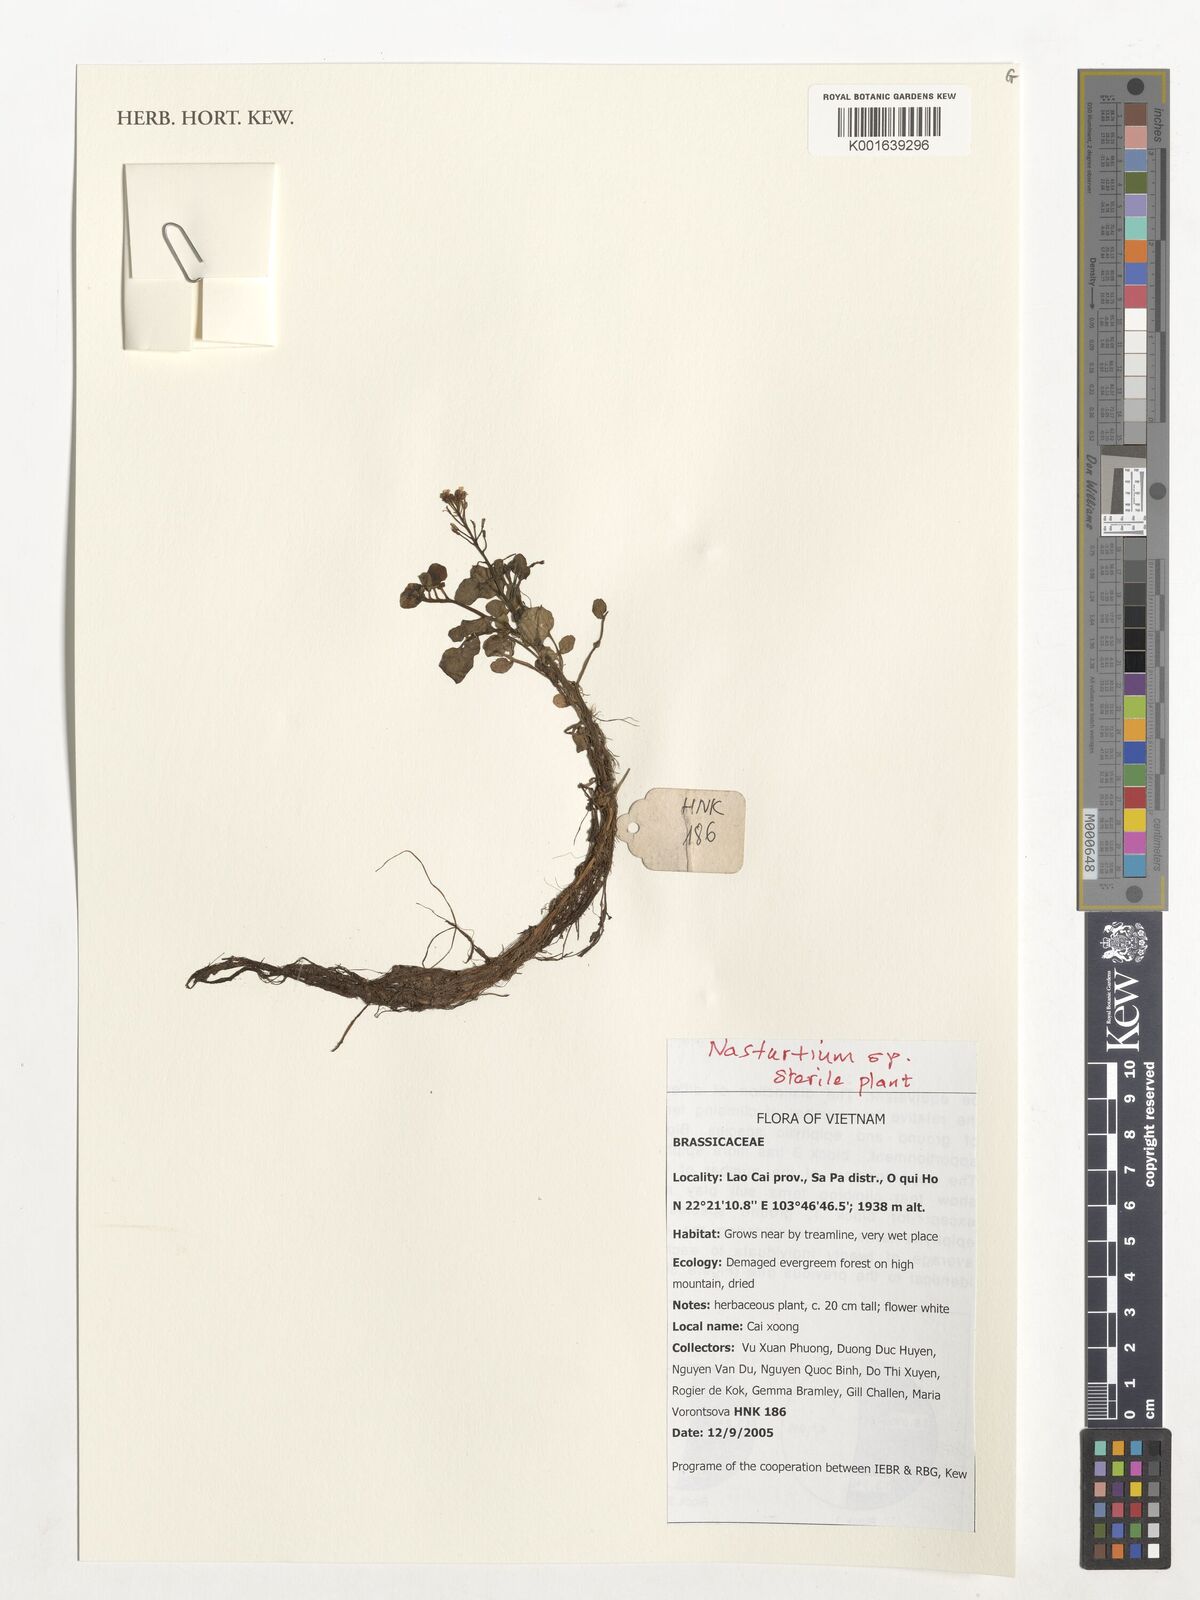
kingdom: Plantae
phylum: Tracheophyta
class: Magnoliopsida
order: Brassicales
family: Brassicaceae
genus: Nasturtium
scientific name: Nasturtium
